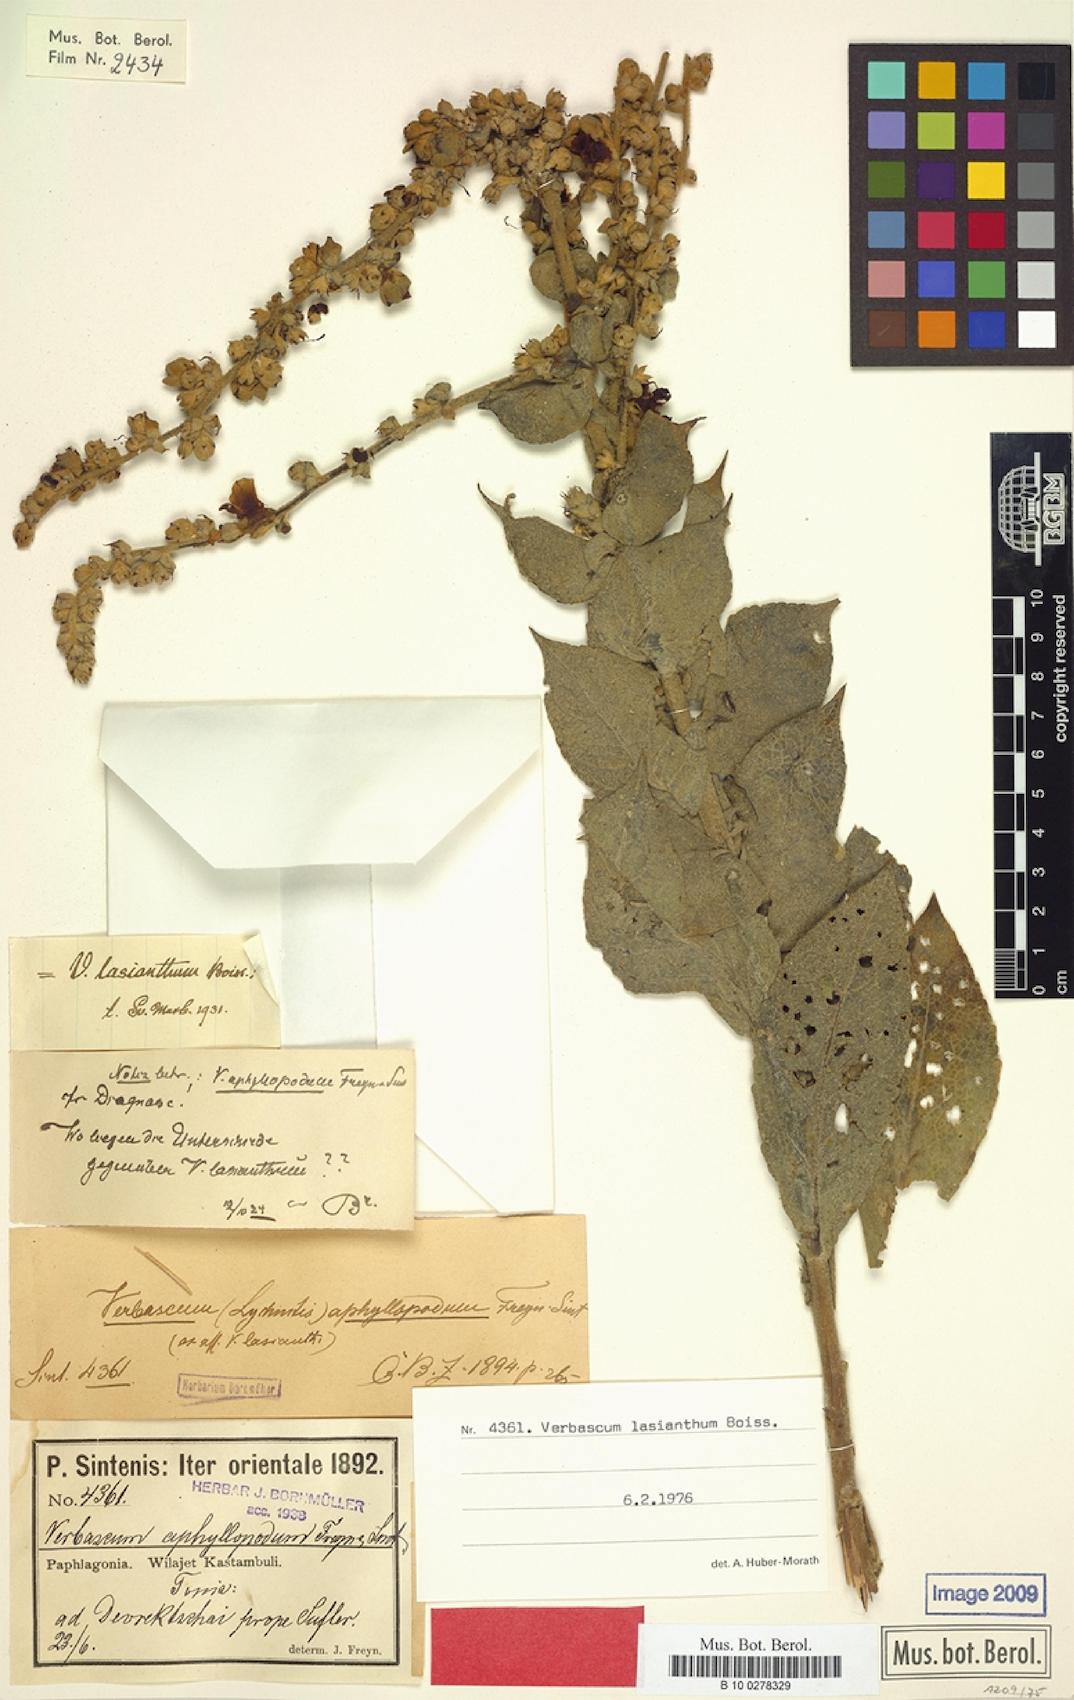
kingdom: Plantae
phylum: Tracheophyta
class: Magnoliopsida
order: Lamiales
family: Scrophulariaceae
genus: Verbascum
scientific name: Verbascum lasianthum
